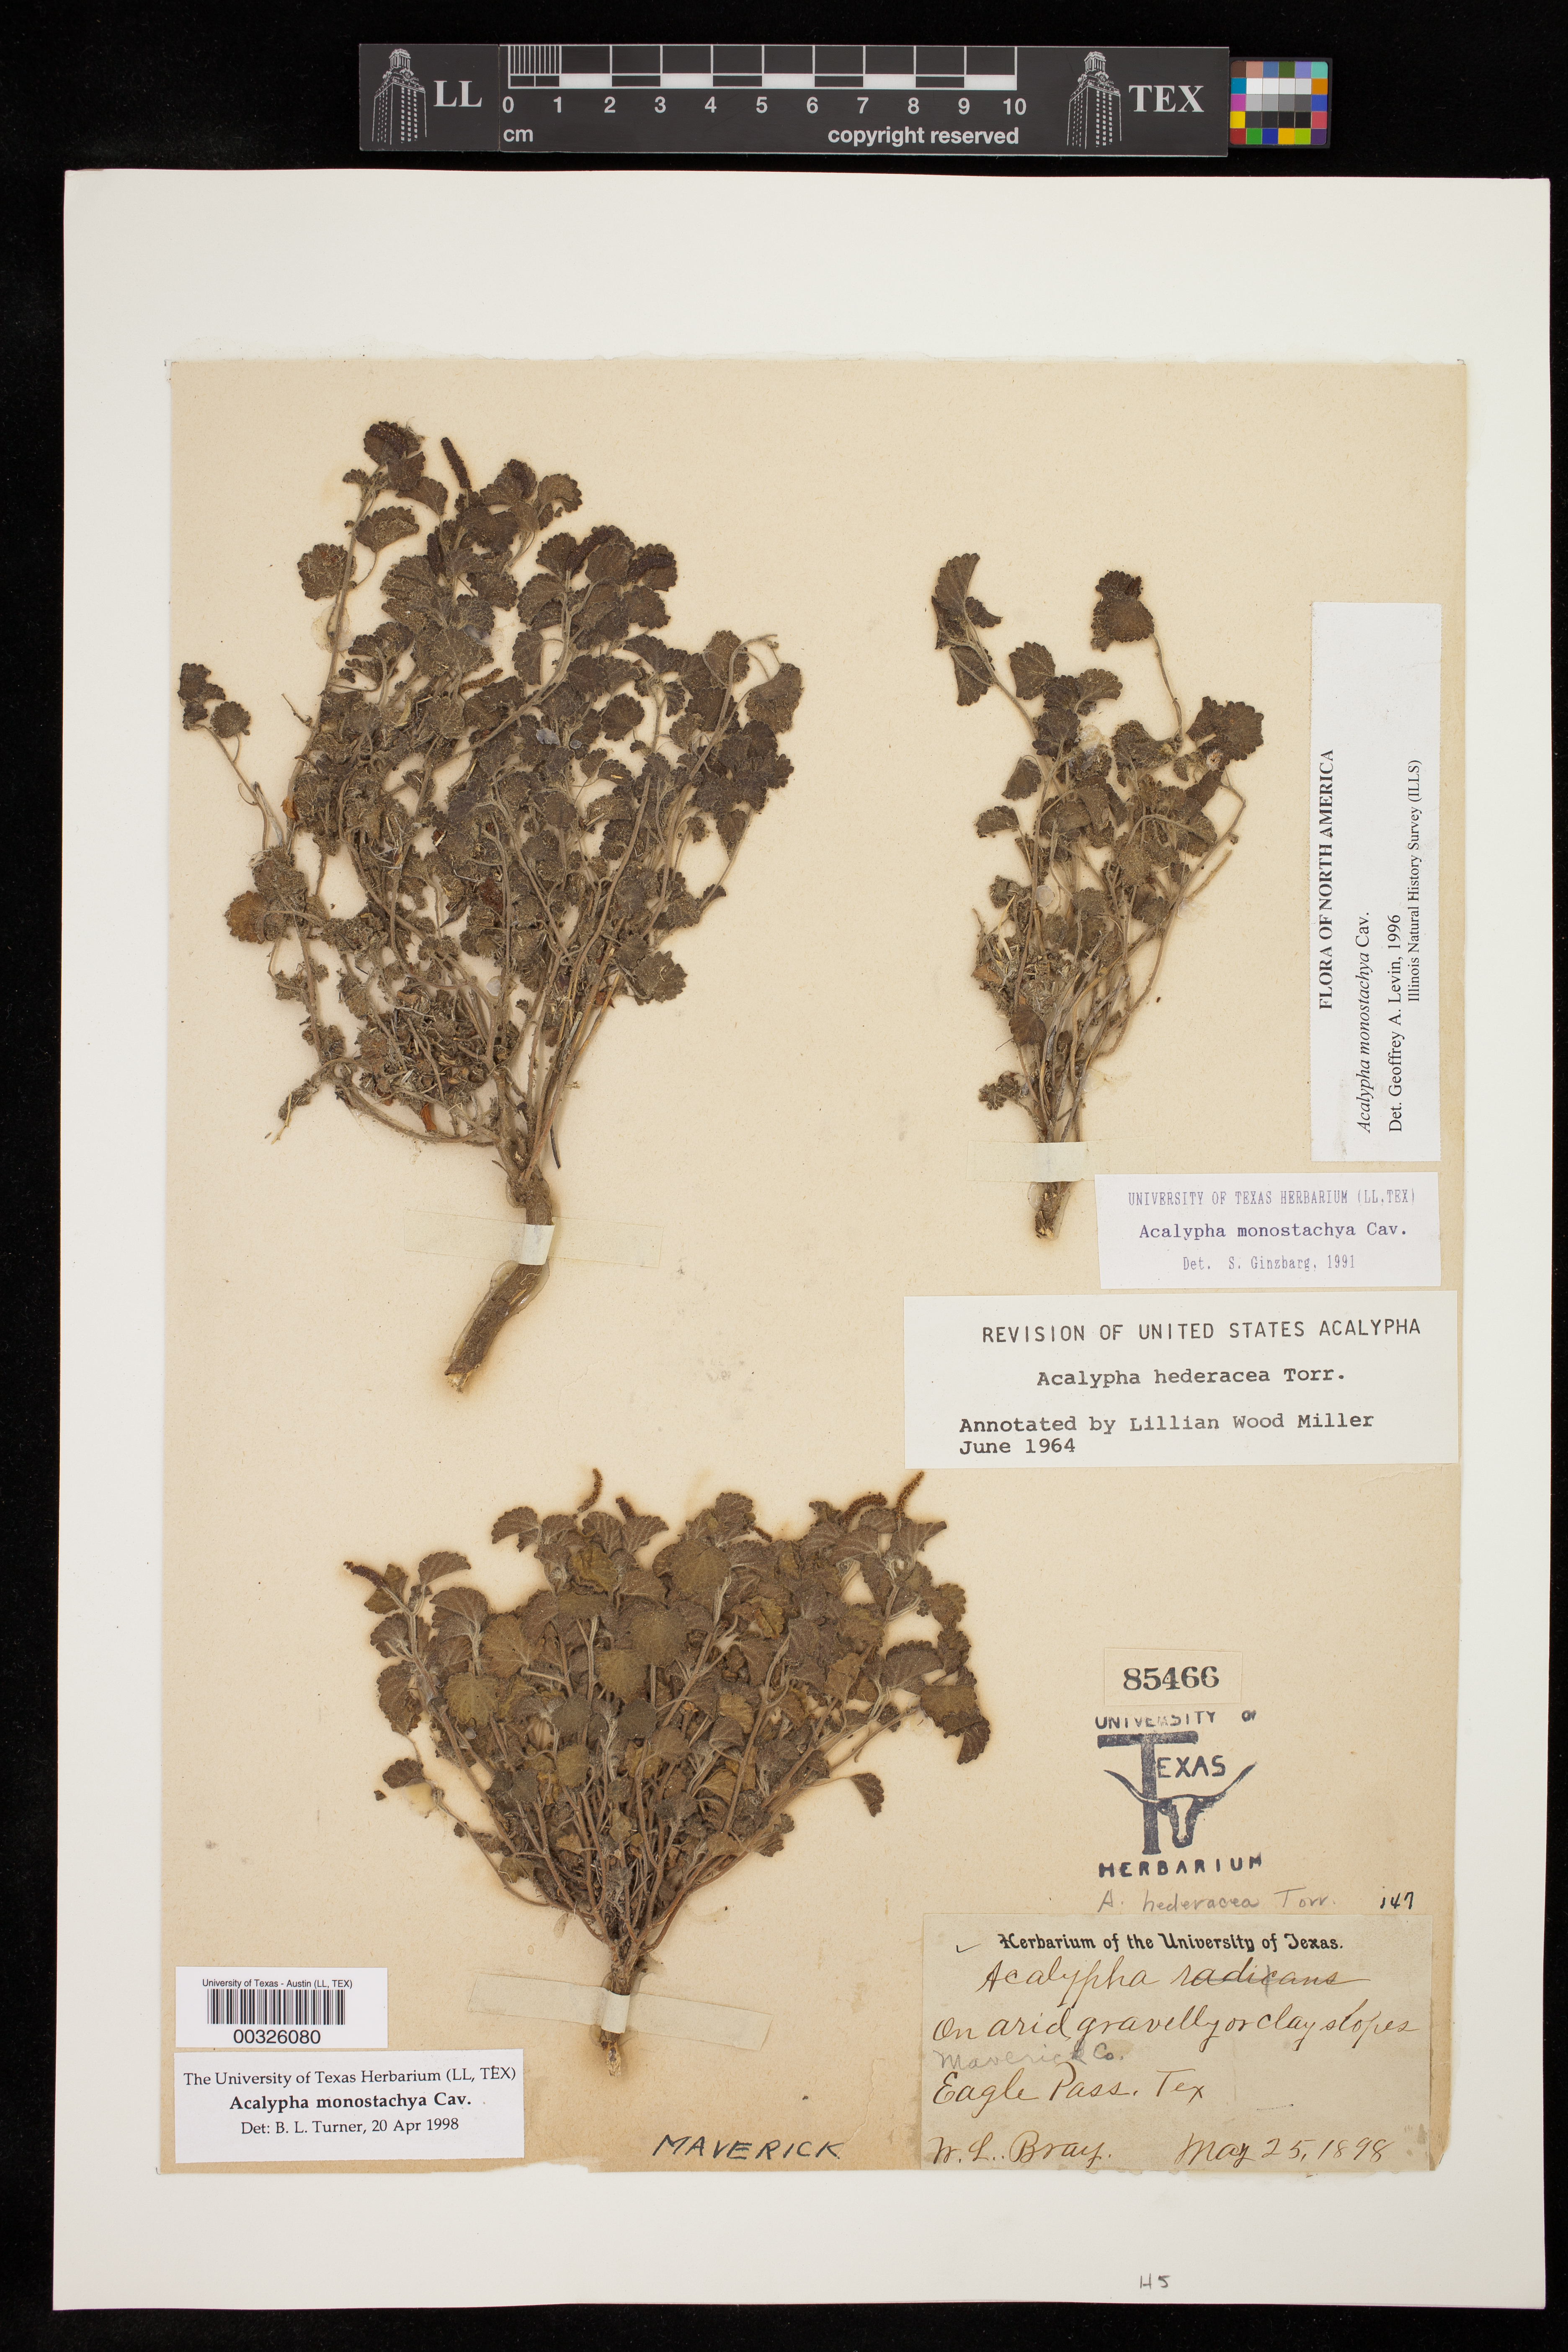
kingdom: Plantae
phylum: Tracheophyta
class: Magnoliopsida
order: Malpighiales
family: Euphorbiaceae
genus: Acalypha
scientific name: Acalypha monostachya
